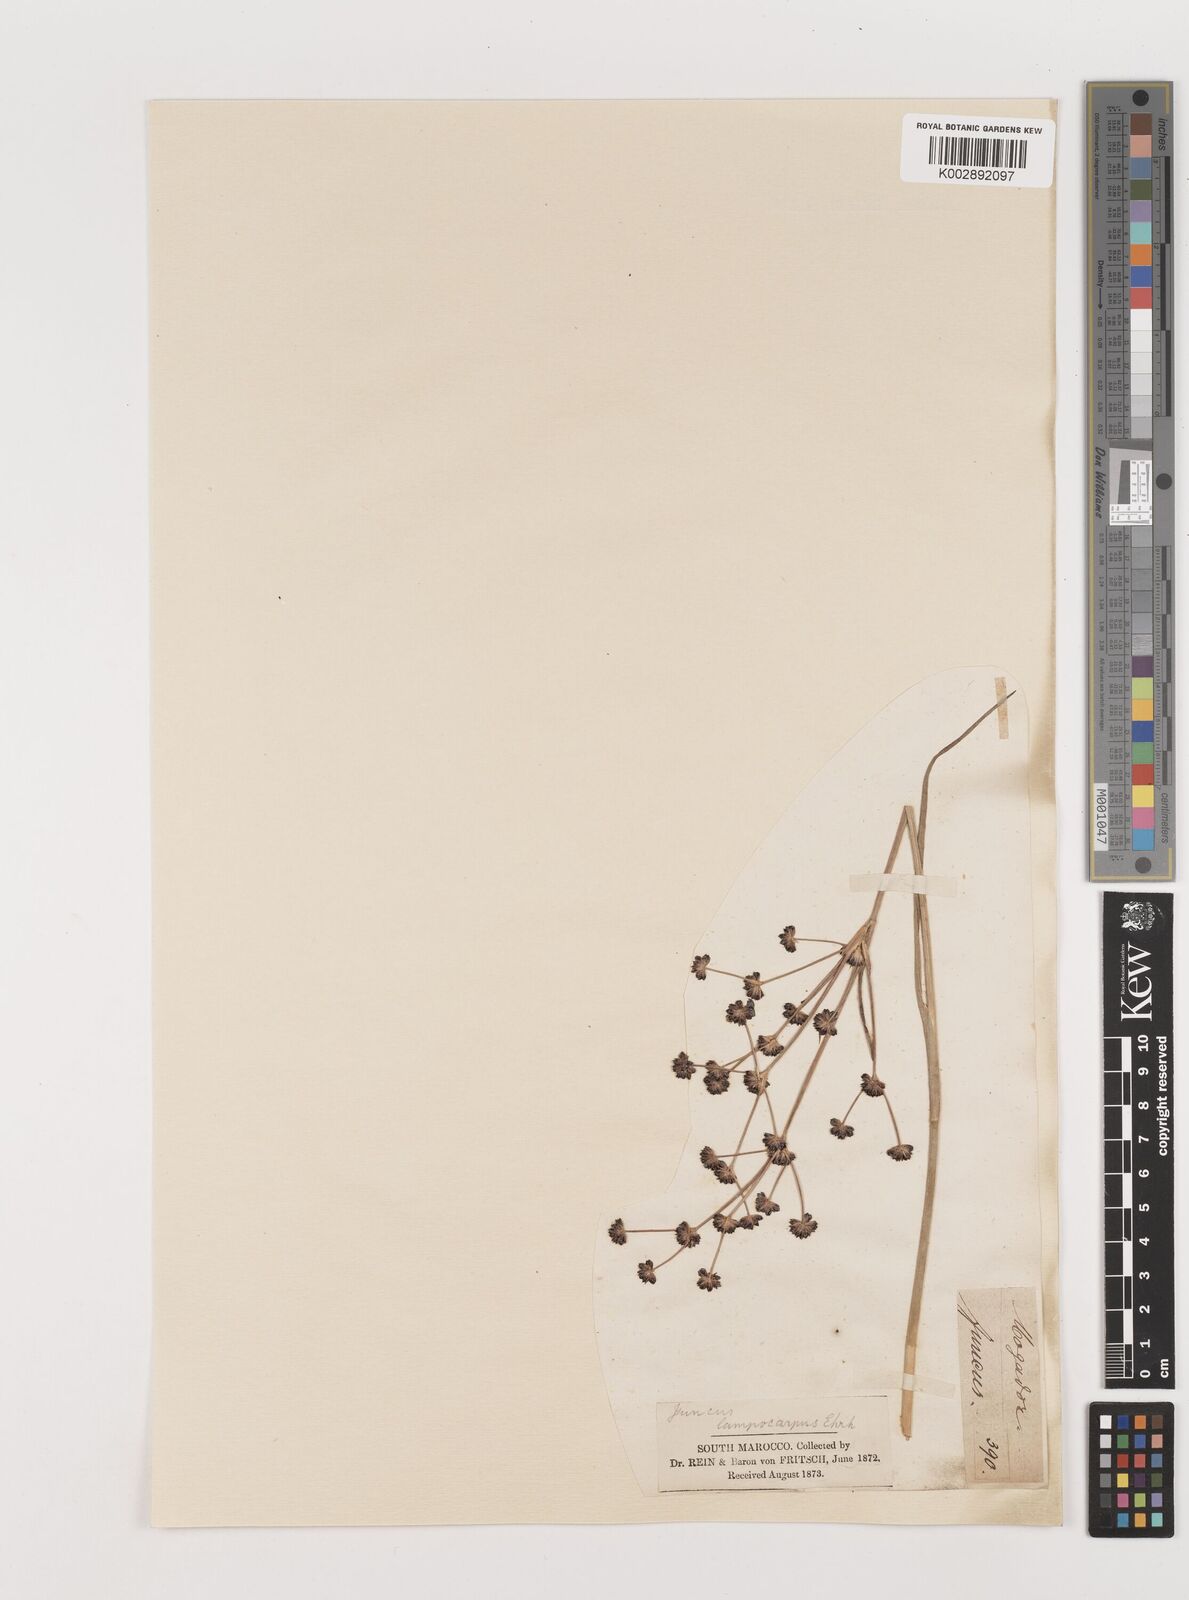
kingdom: Plantae
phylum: Tracheophyta
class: Liliopsida
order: Poales
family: Juncaceae
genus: Juncus
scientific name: Juncus articulatus
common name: Jointed rush
